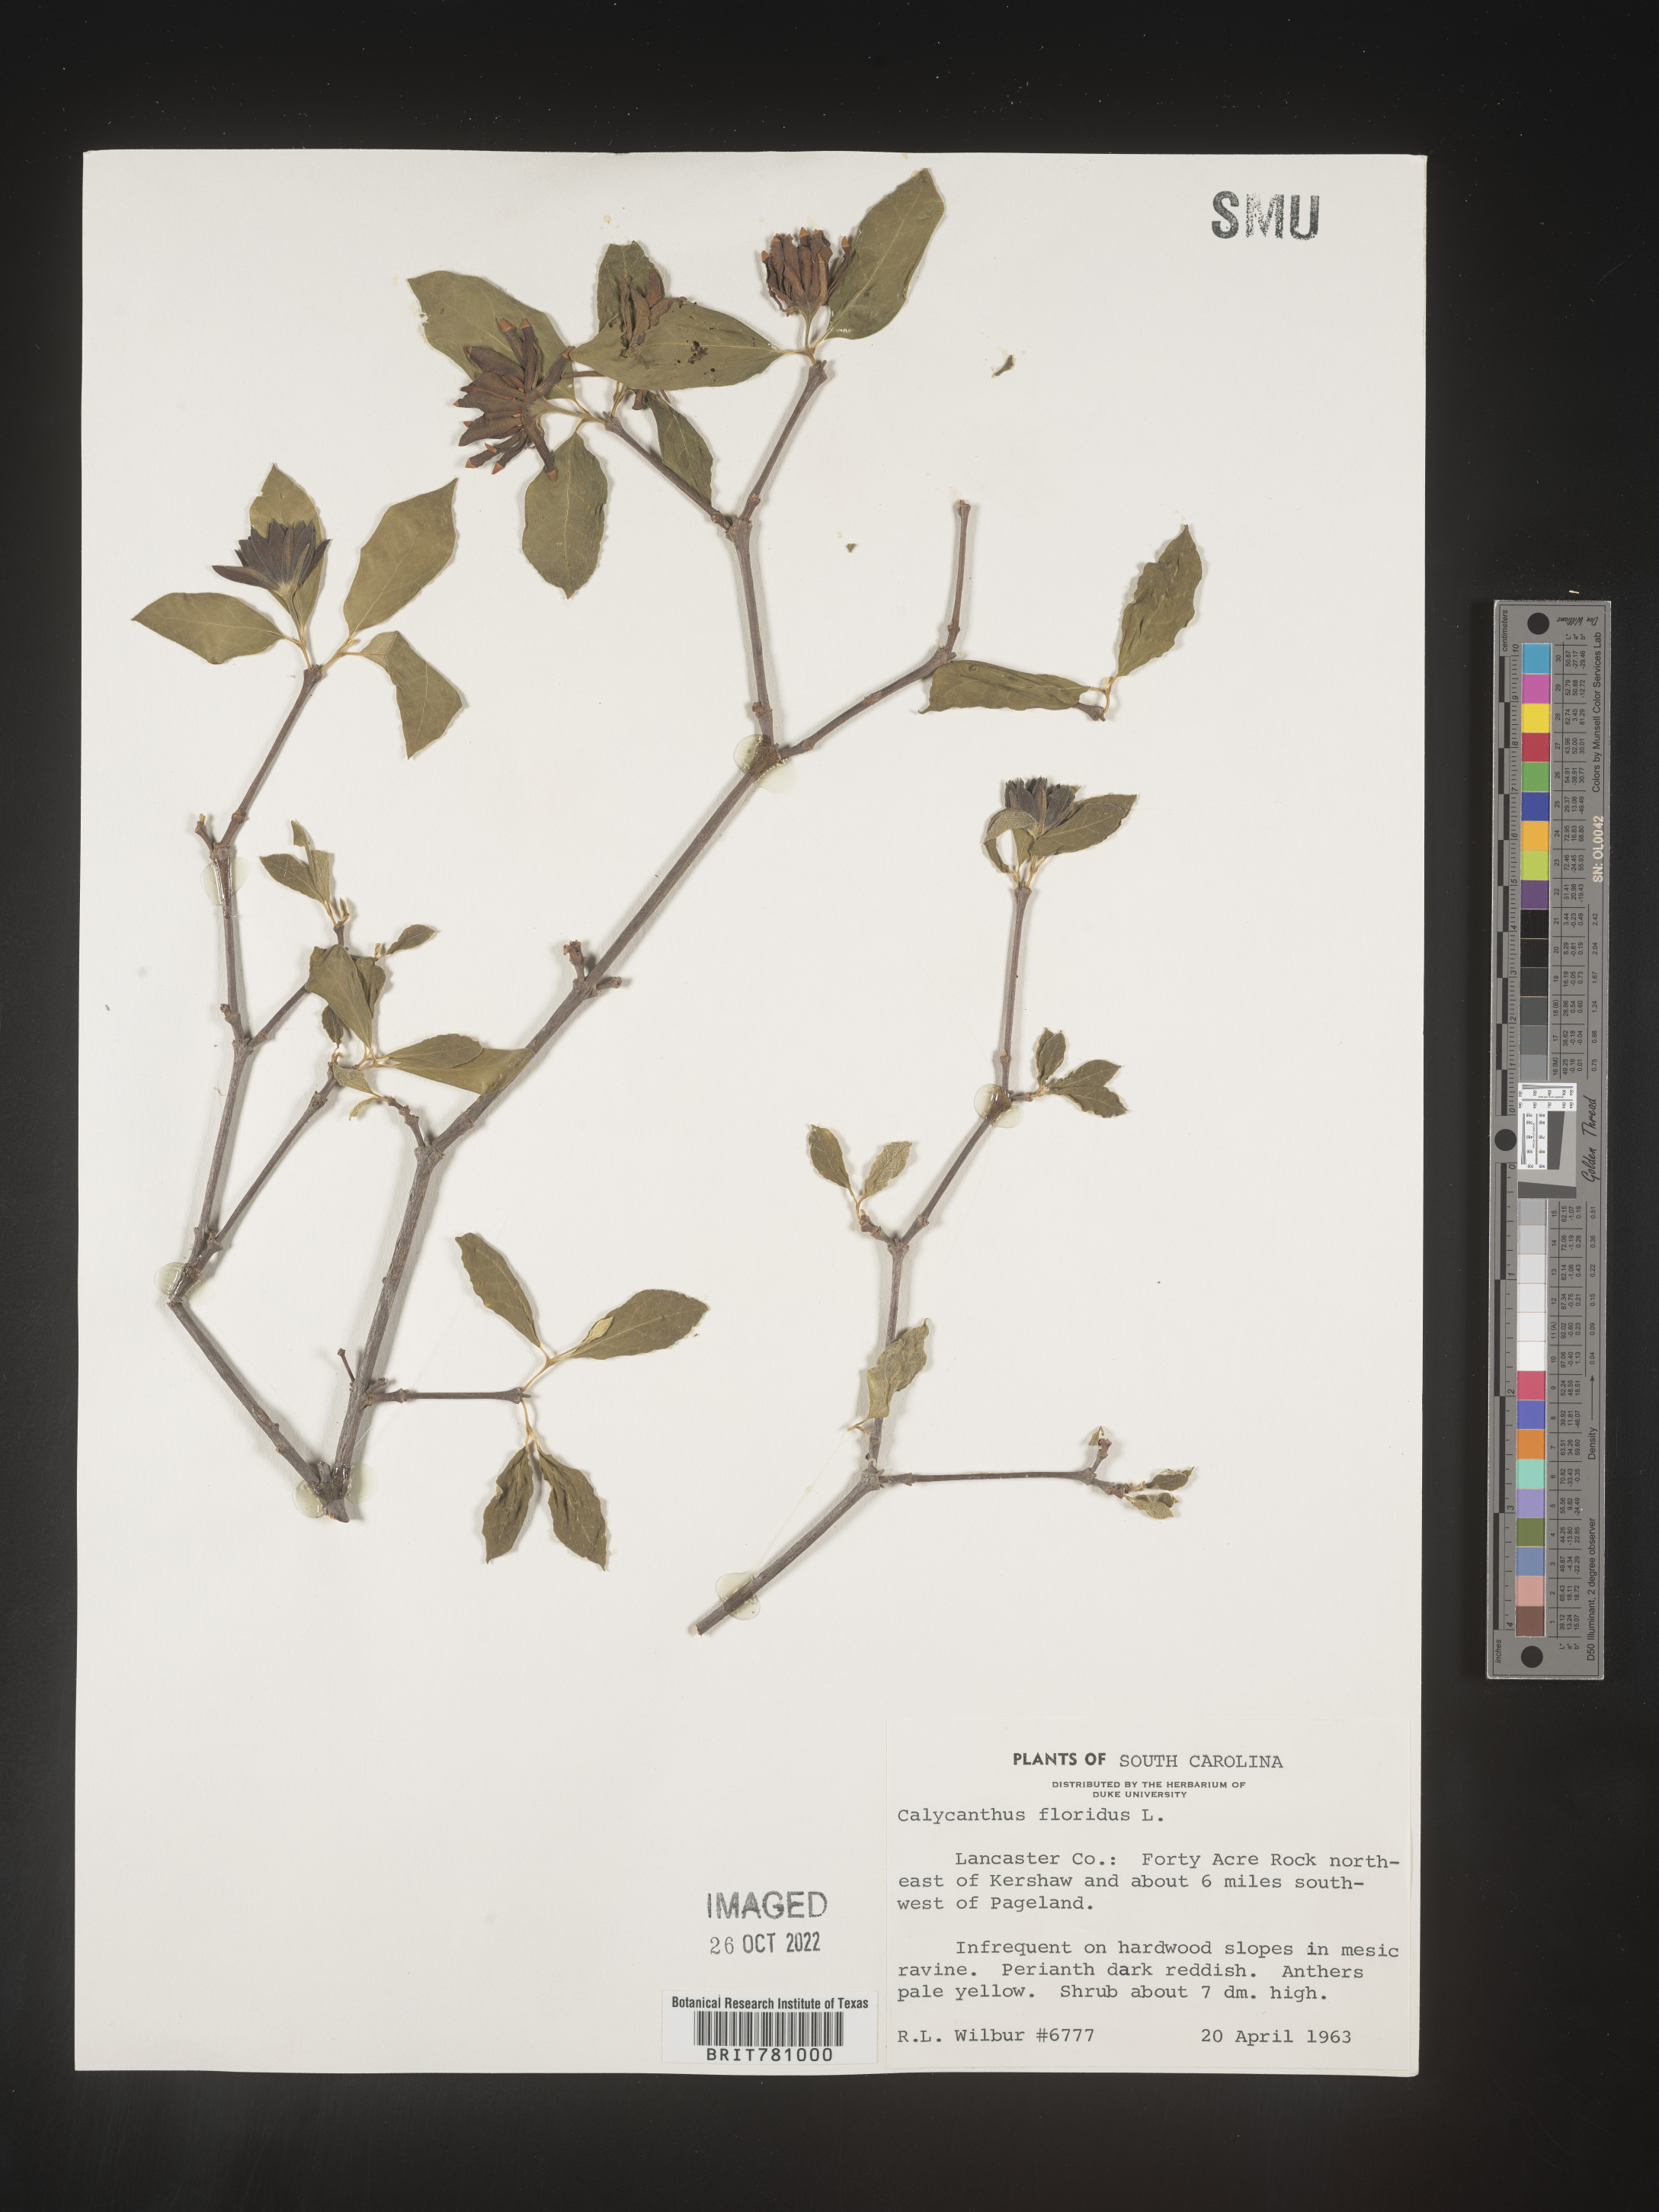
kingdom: Plantae
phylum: Tracheophyta
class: Magnoliopsida
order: Laurales
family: Calycanthaceae
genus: Calycanthus
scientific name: Calycanthus floridus
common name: Carolina-allspice
